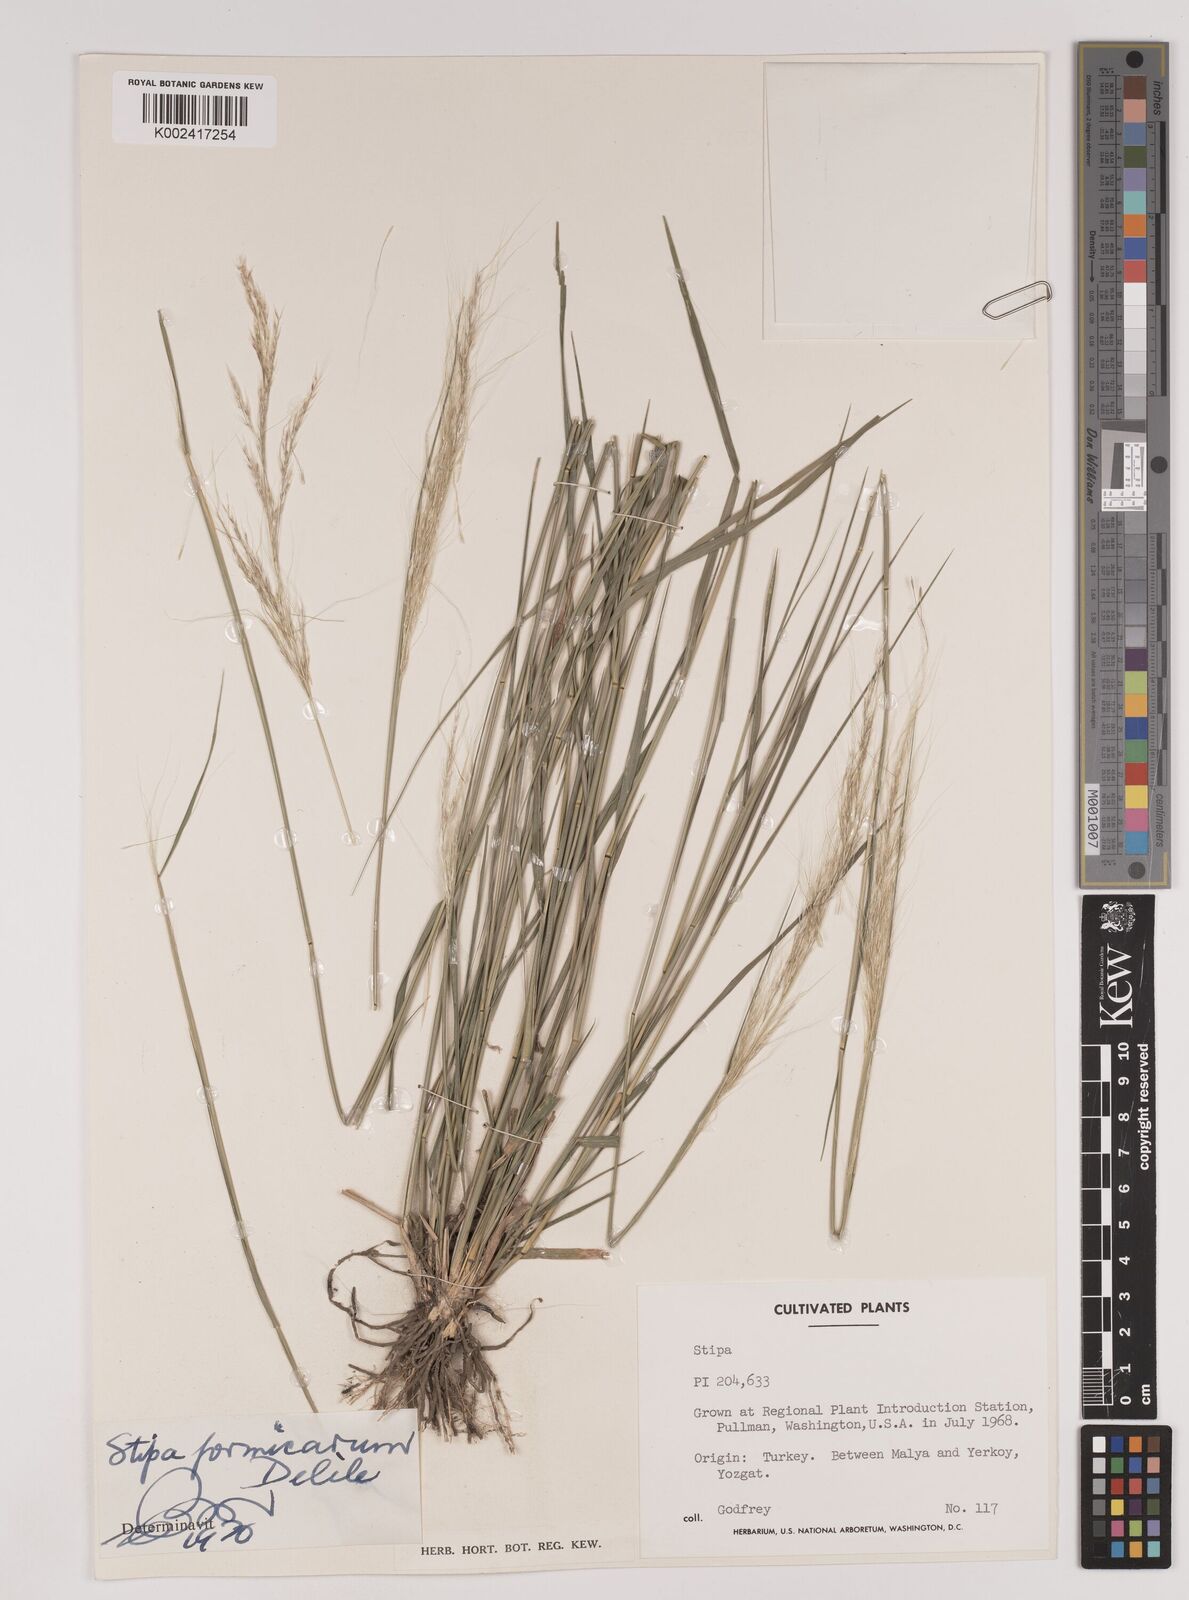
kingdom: Plantae
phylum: Tracheophyta
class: Liliopsida
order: Poales
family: Poaceae
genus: Nassella
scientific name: Nassella formicarum
